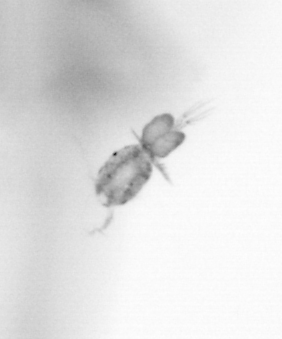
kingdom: Animalia
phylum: Arthropoda
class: Copepoda
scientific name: Copepoda
